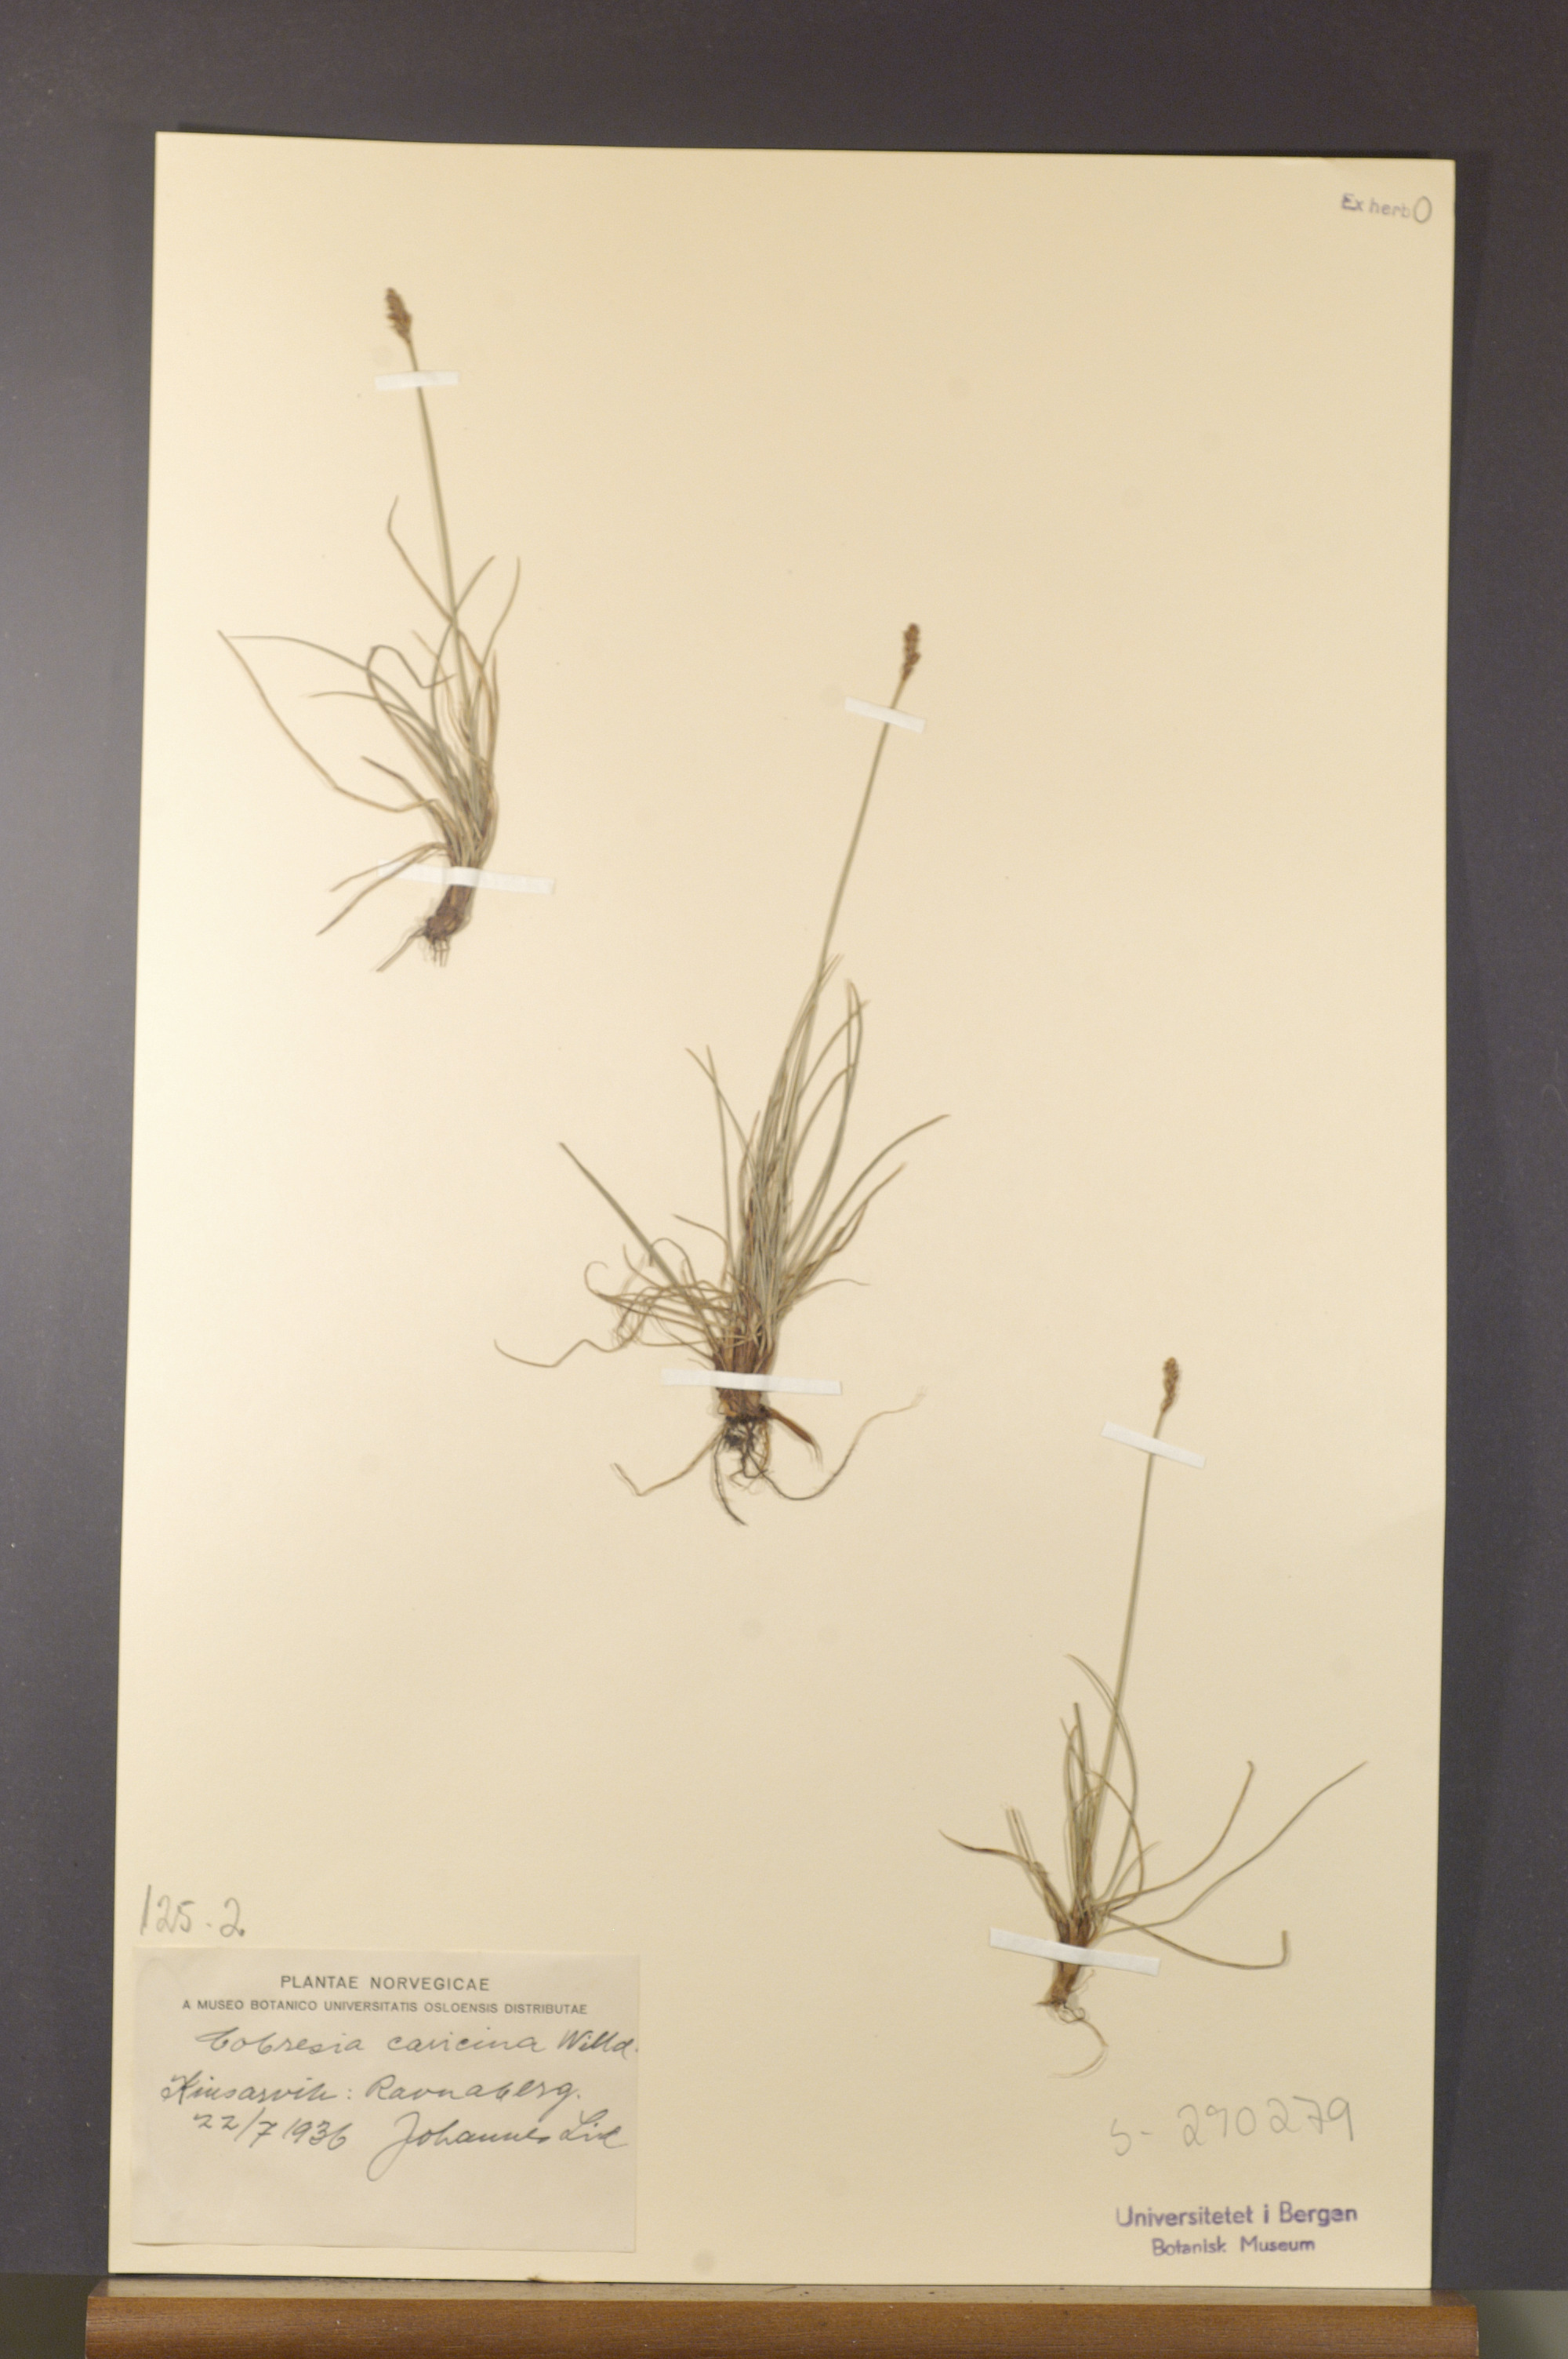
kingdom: Plantae
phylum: Tracheophyta
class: Liliopsida
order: Poales
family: Cyperaceae
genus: Carex
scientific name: Carex simpliciuscula
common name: Simple bog sedge
